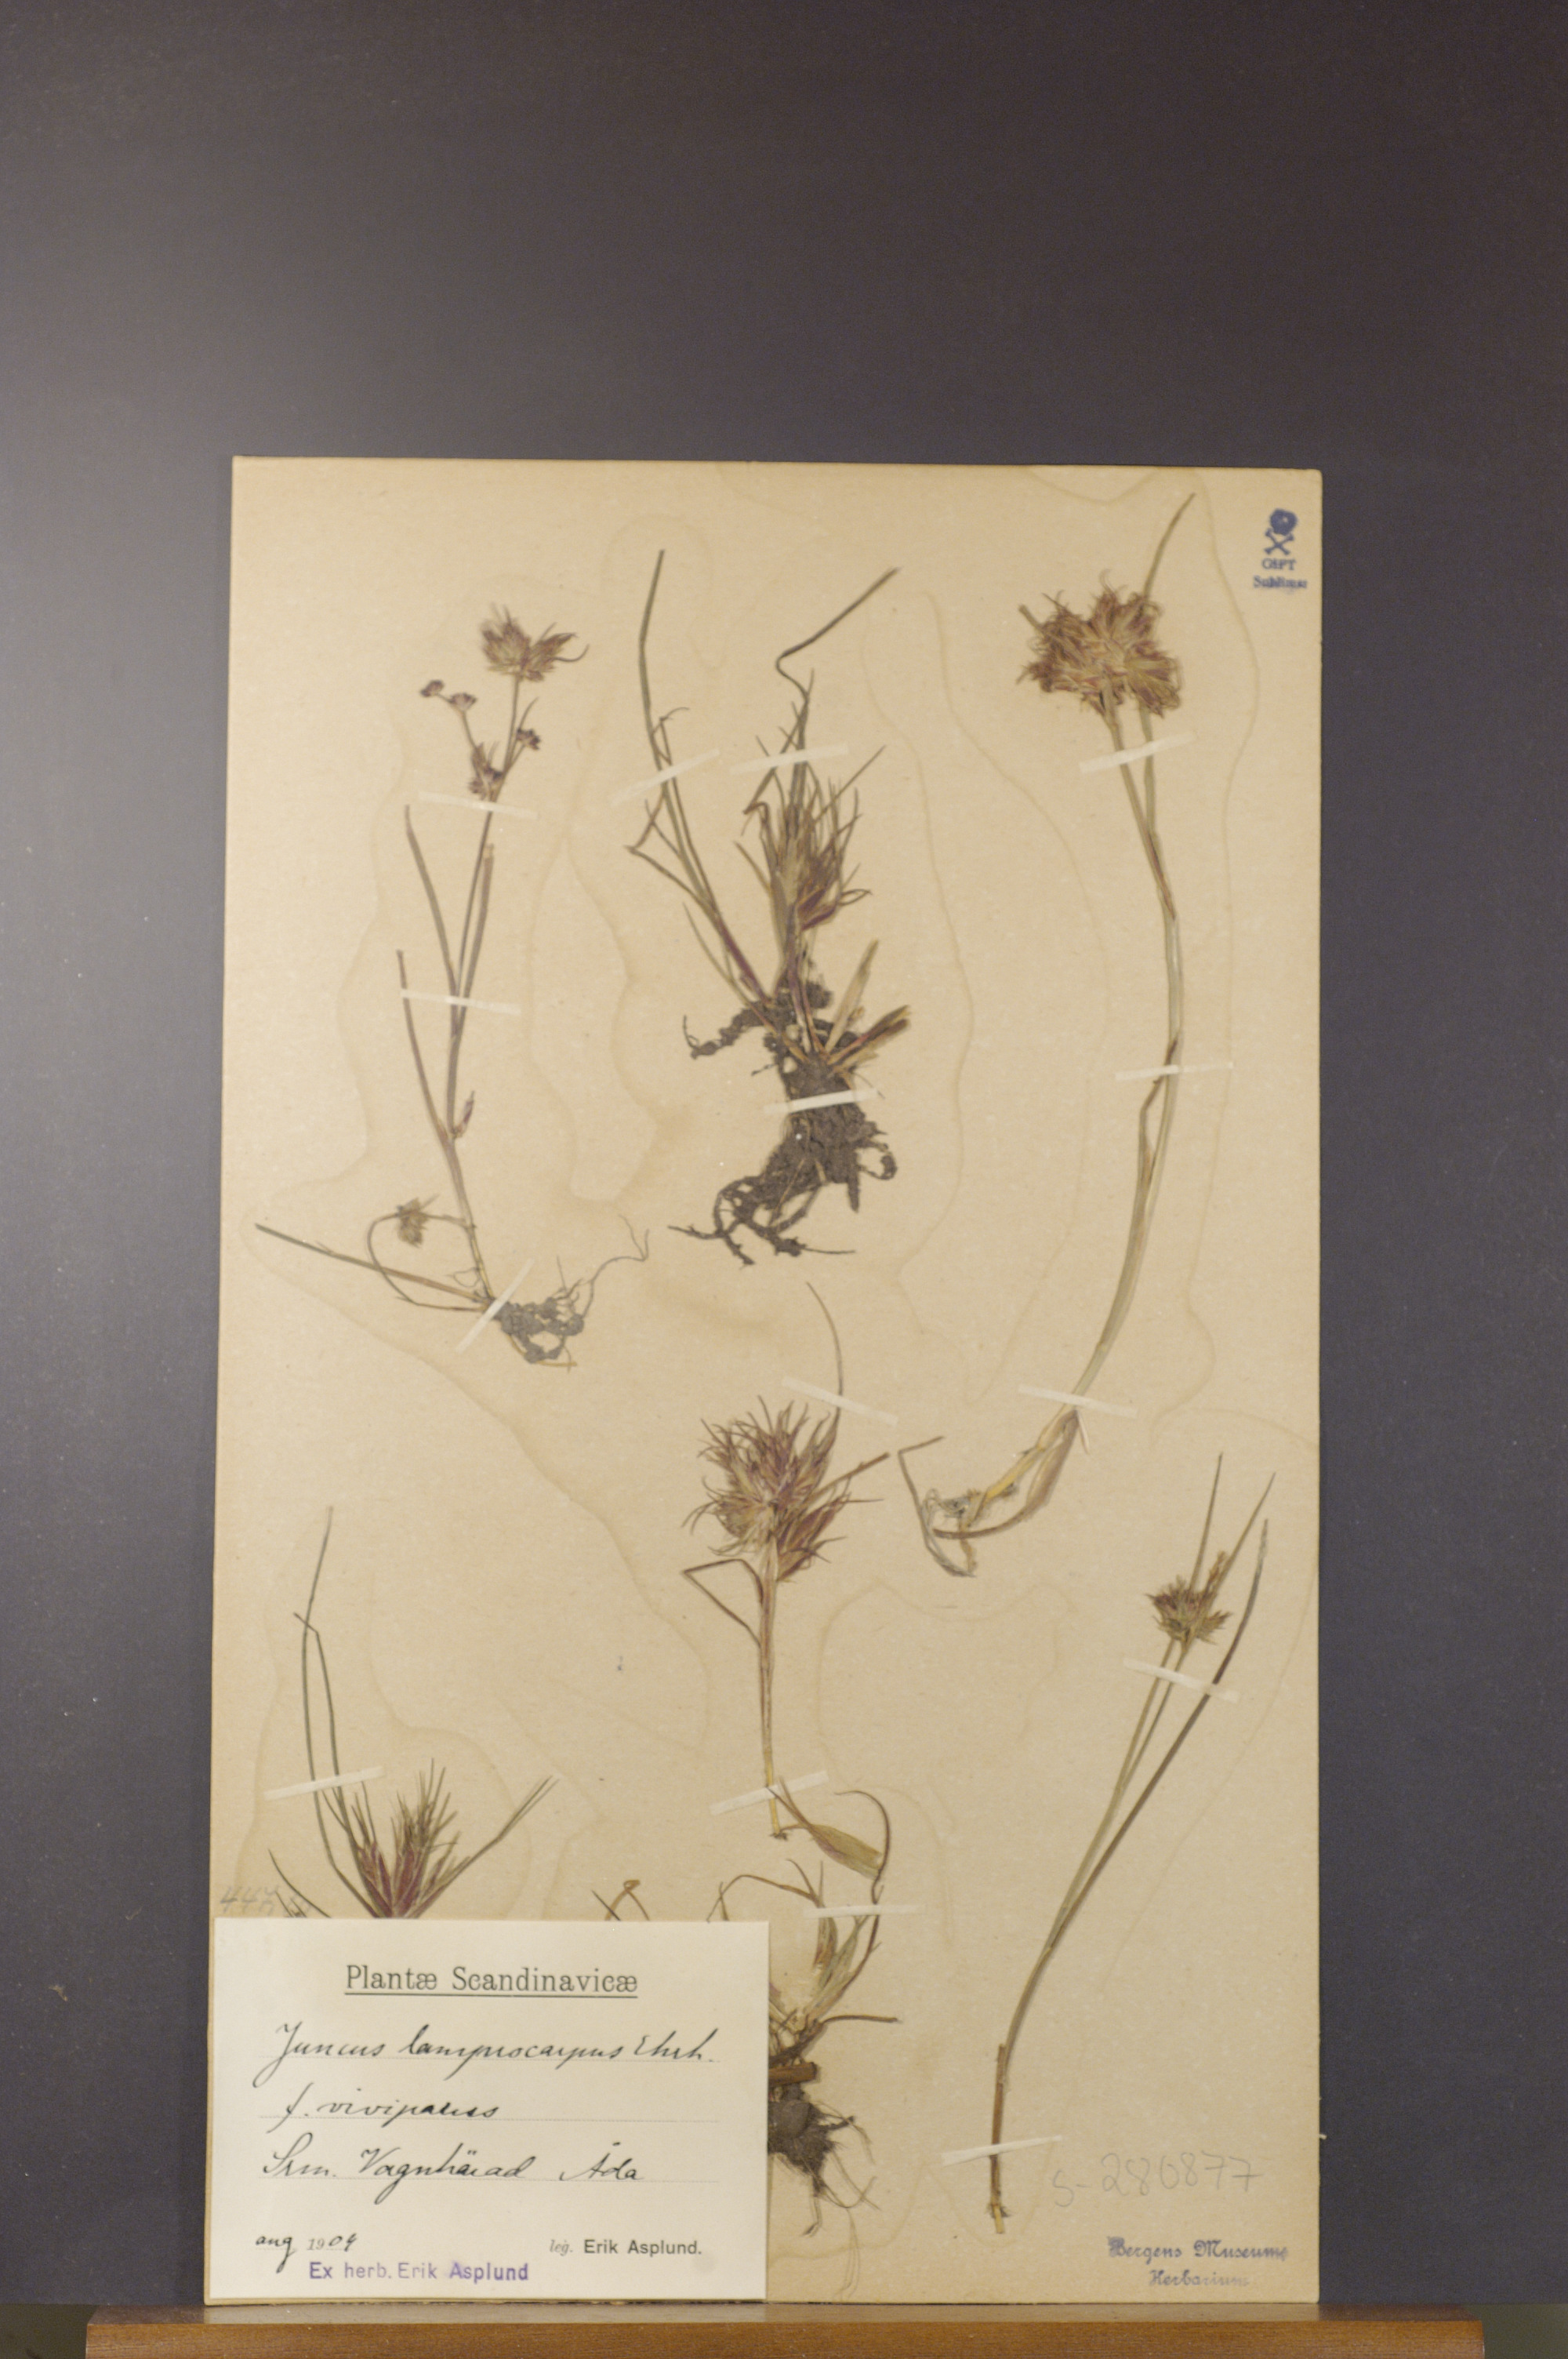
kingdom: Plantae
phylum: Tracheophyta
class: Liliopsida
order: Poales
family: Juncaceae
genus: Juncus
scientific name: Juncus articulatus
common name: Jointed rush
